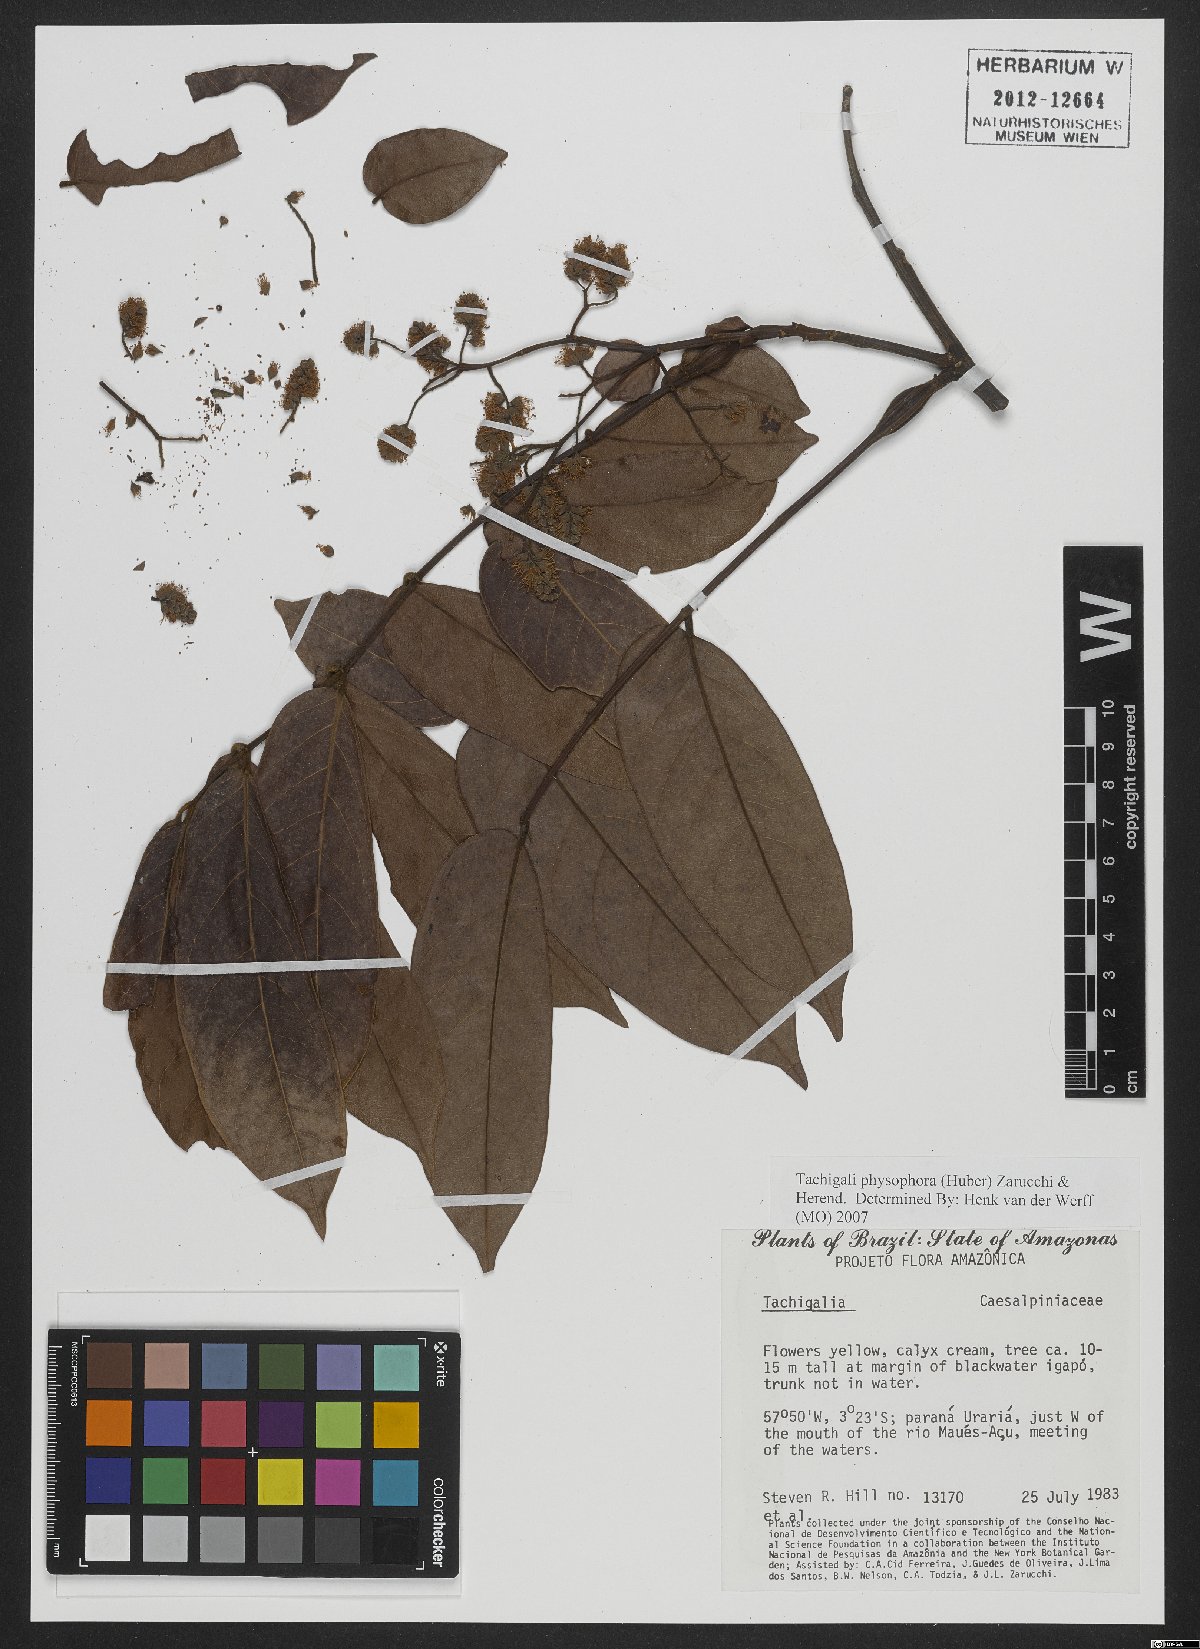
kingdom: Plantae
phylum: Tracheophyta
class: Magnoliopsida
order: Fabales
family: Fabaceae
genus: Tachigali
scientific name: Tachigali physophora
